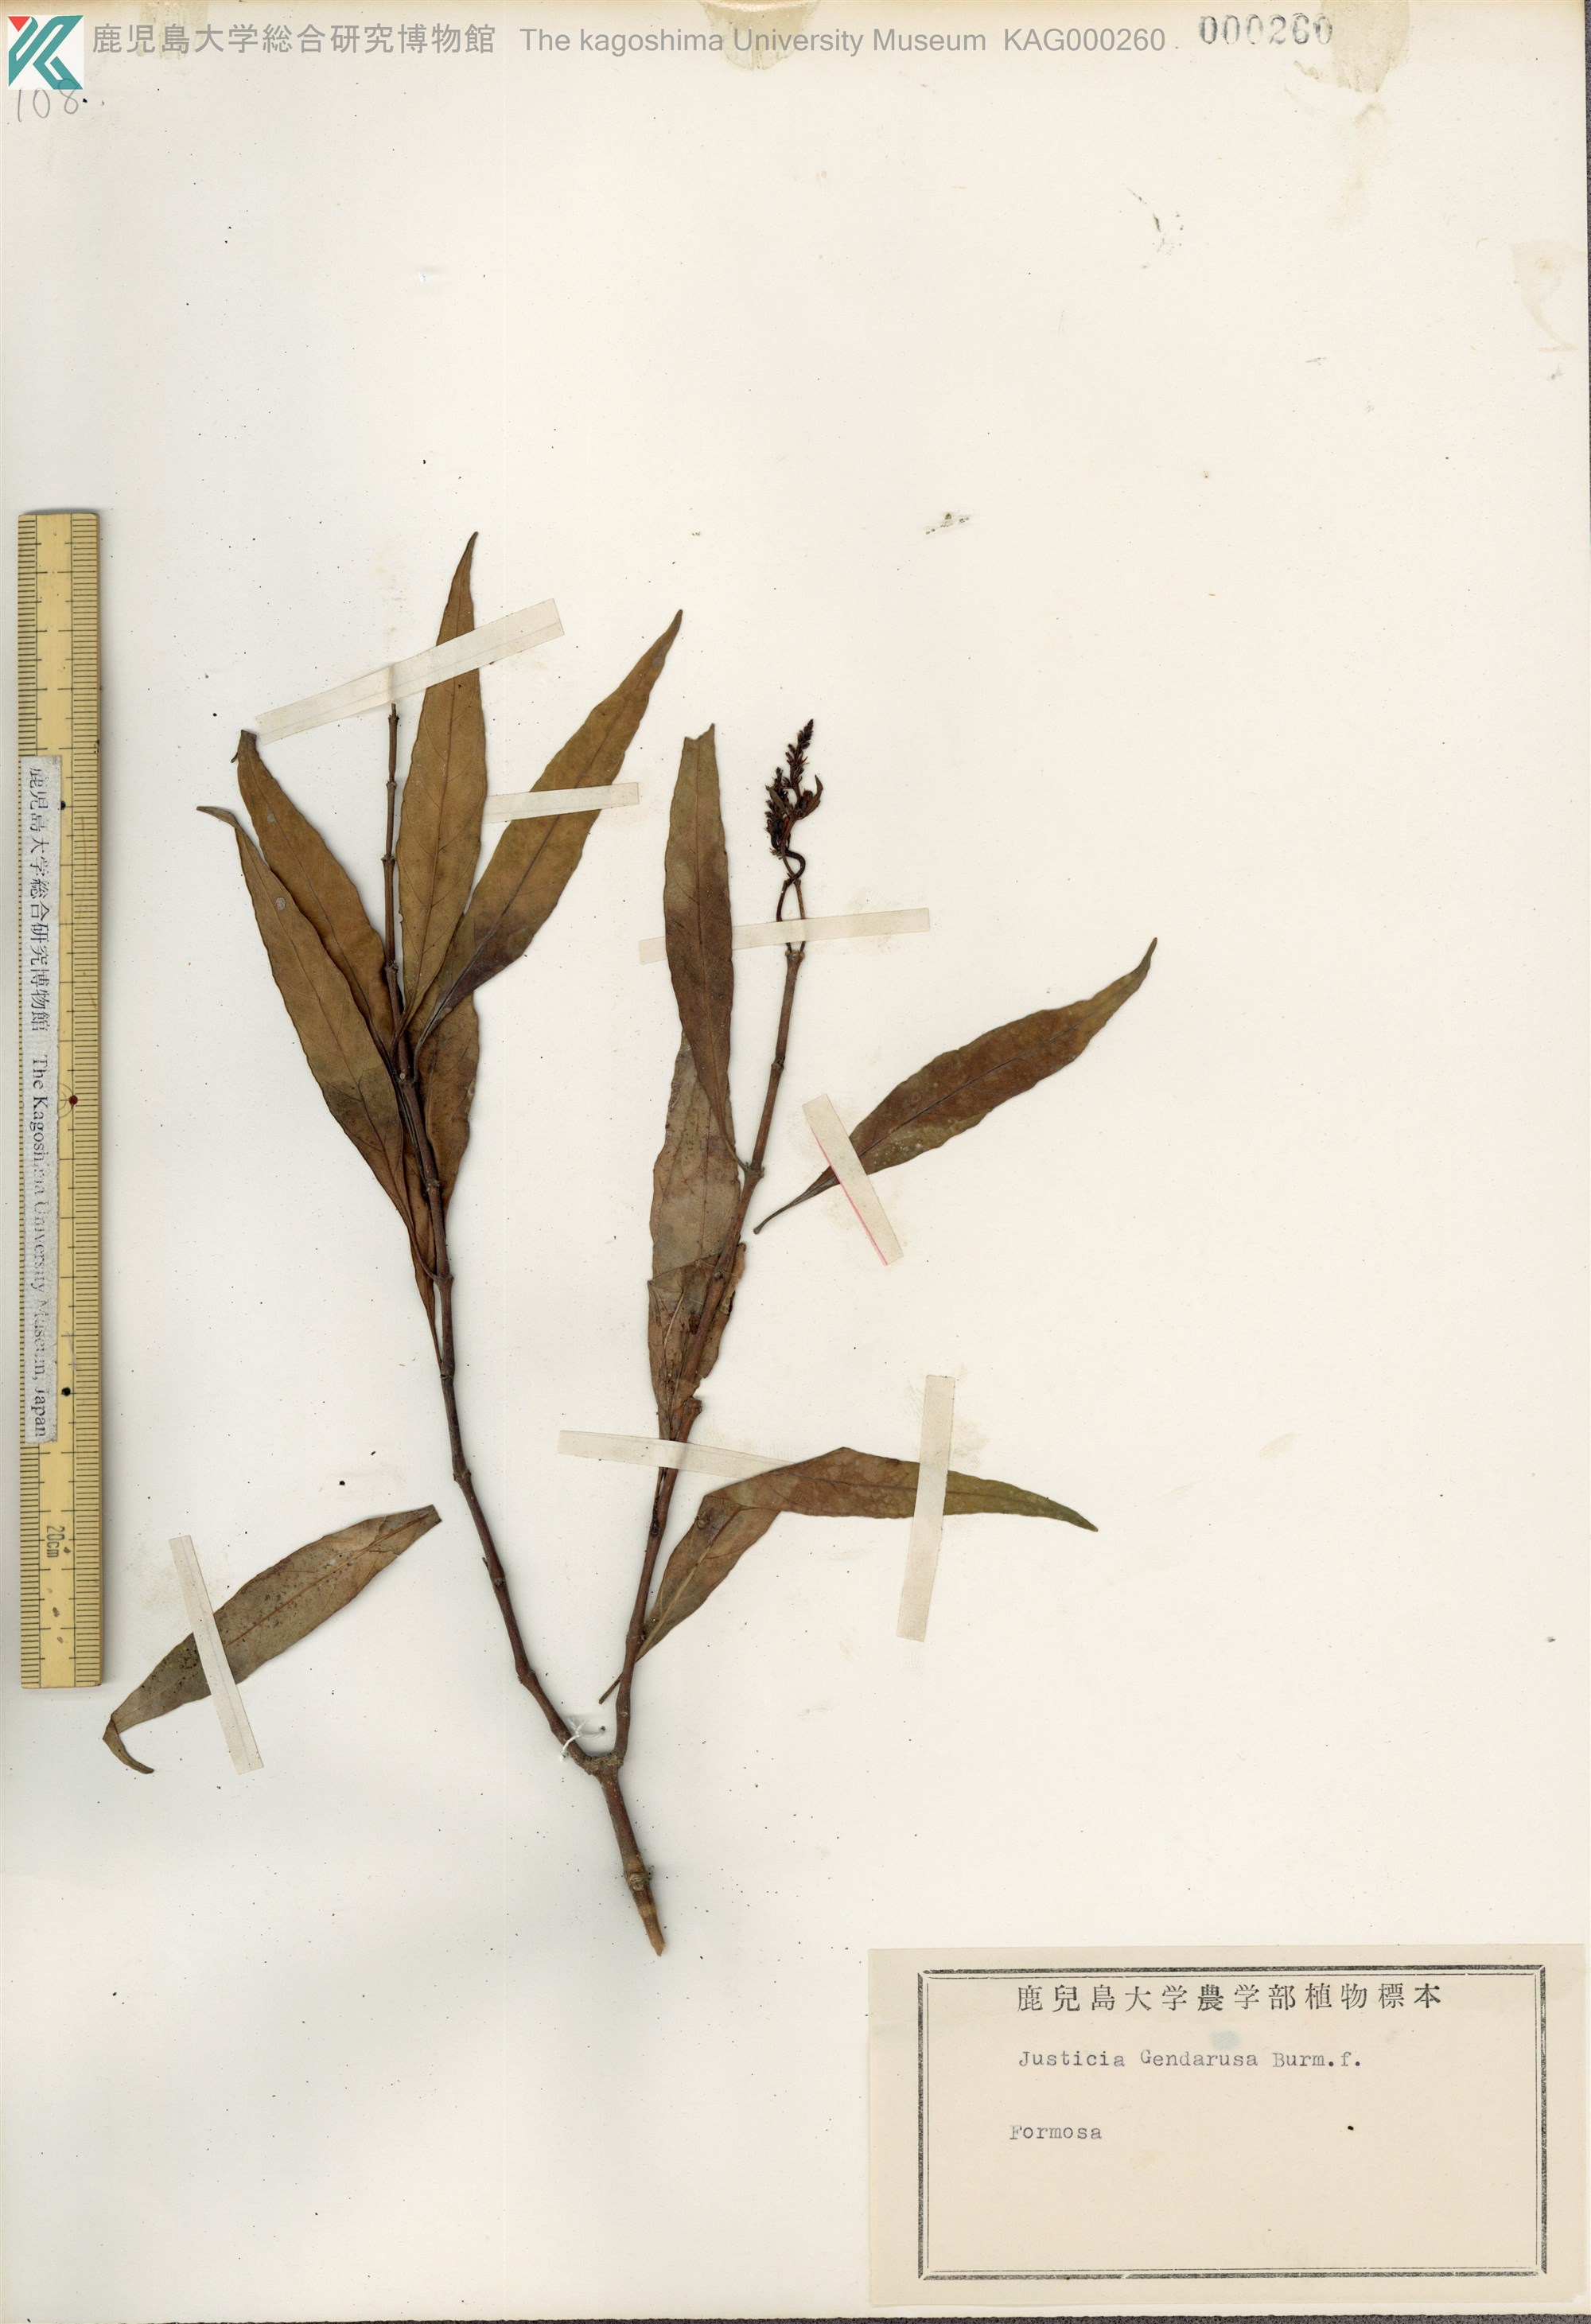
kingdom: Plantae
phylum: Tracheophyta
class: Magnoliopsida
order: Lamiales
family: Acanthaceae
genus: Justicia
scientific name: Justicia gendarussa
